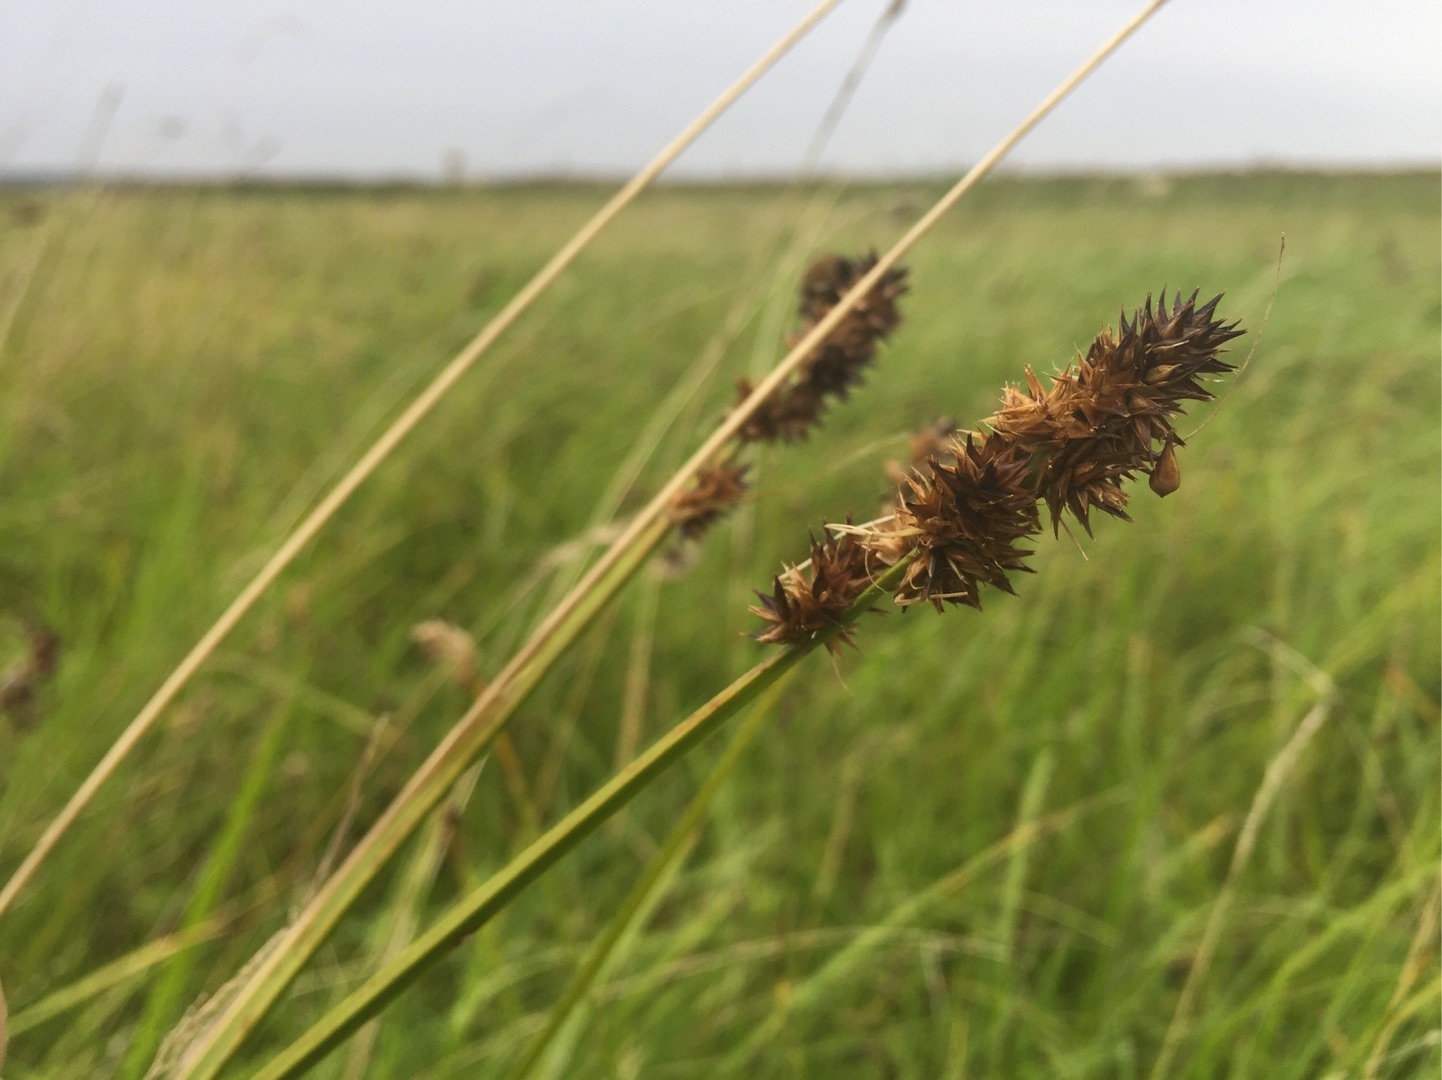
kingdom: Plantae
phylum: Tracheophyta
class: Liliopsida
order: Poales
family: Cyperaceae
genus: Carex
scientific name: Carex otrubae
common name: Sylt-star
